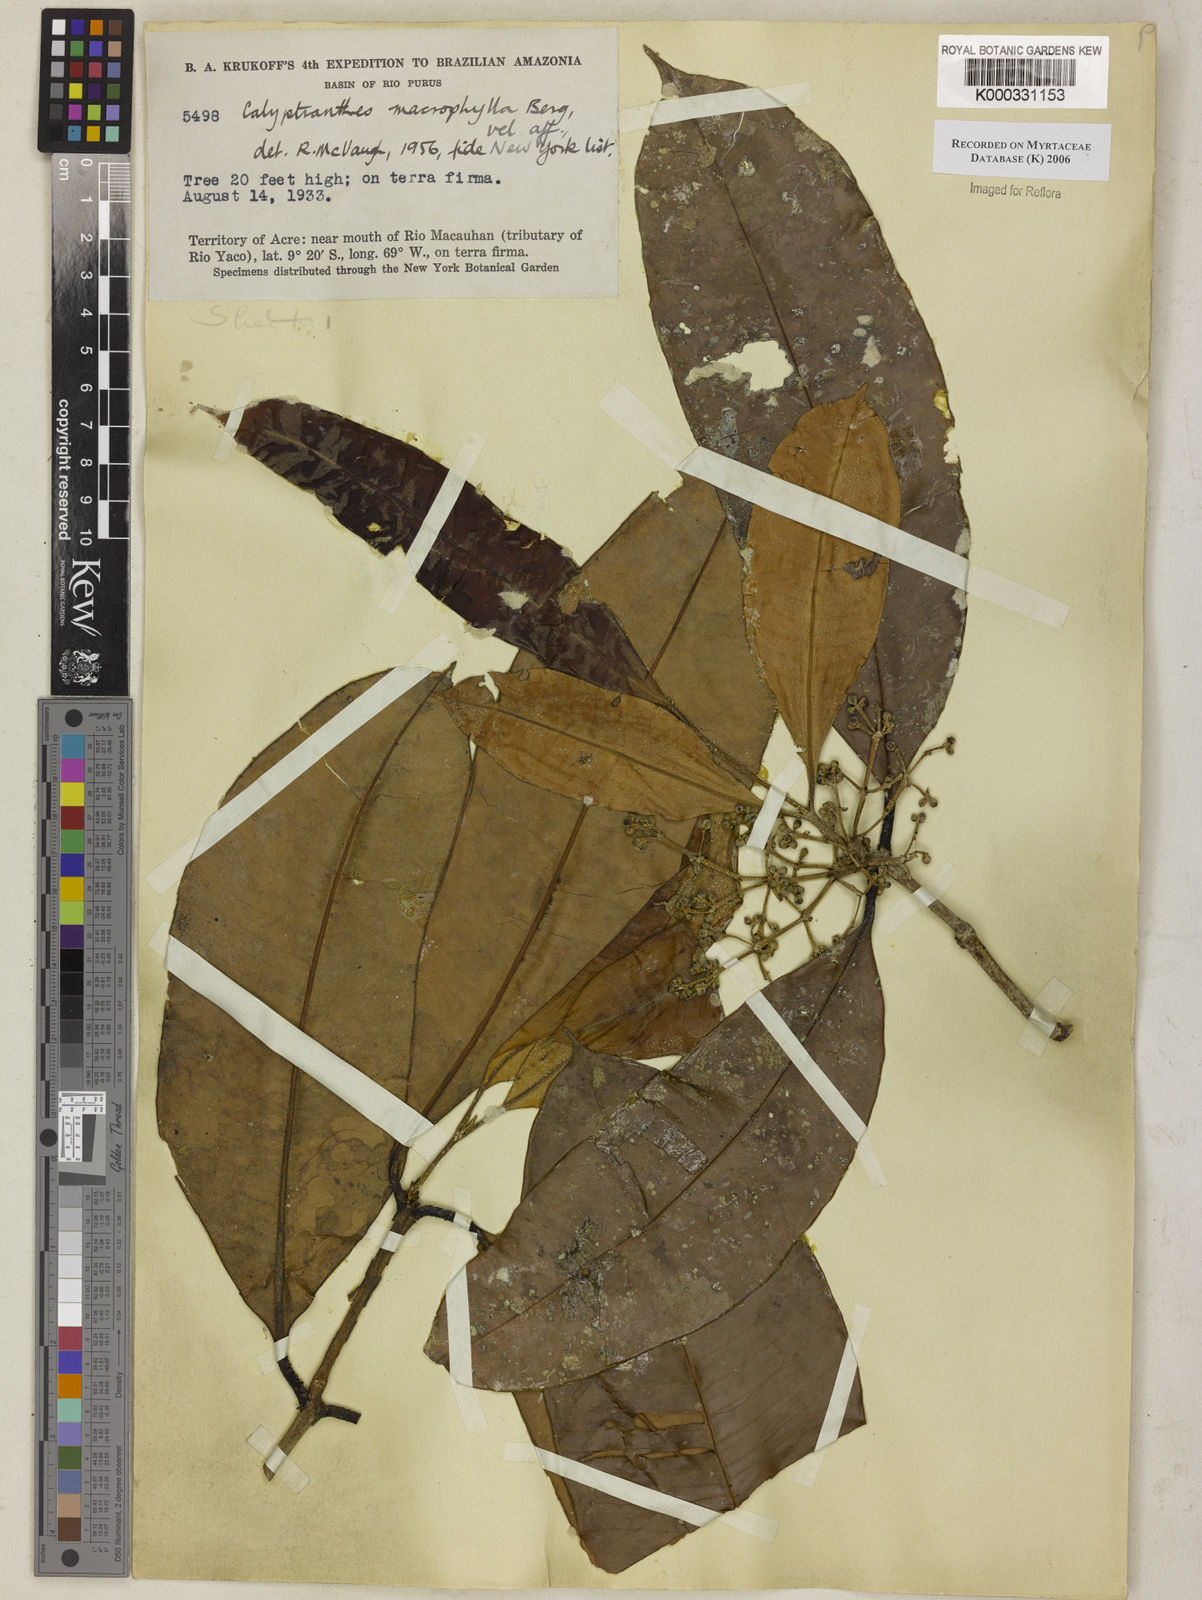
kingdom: Plantae
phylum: Tracheophyta
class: Magnoliopsida
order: Myrtales
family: Myrtaceae
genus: Myrcia
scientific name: Myrcia neomacrophylla
